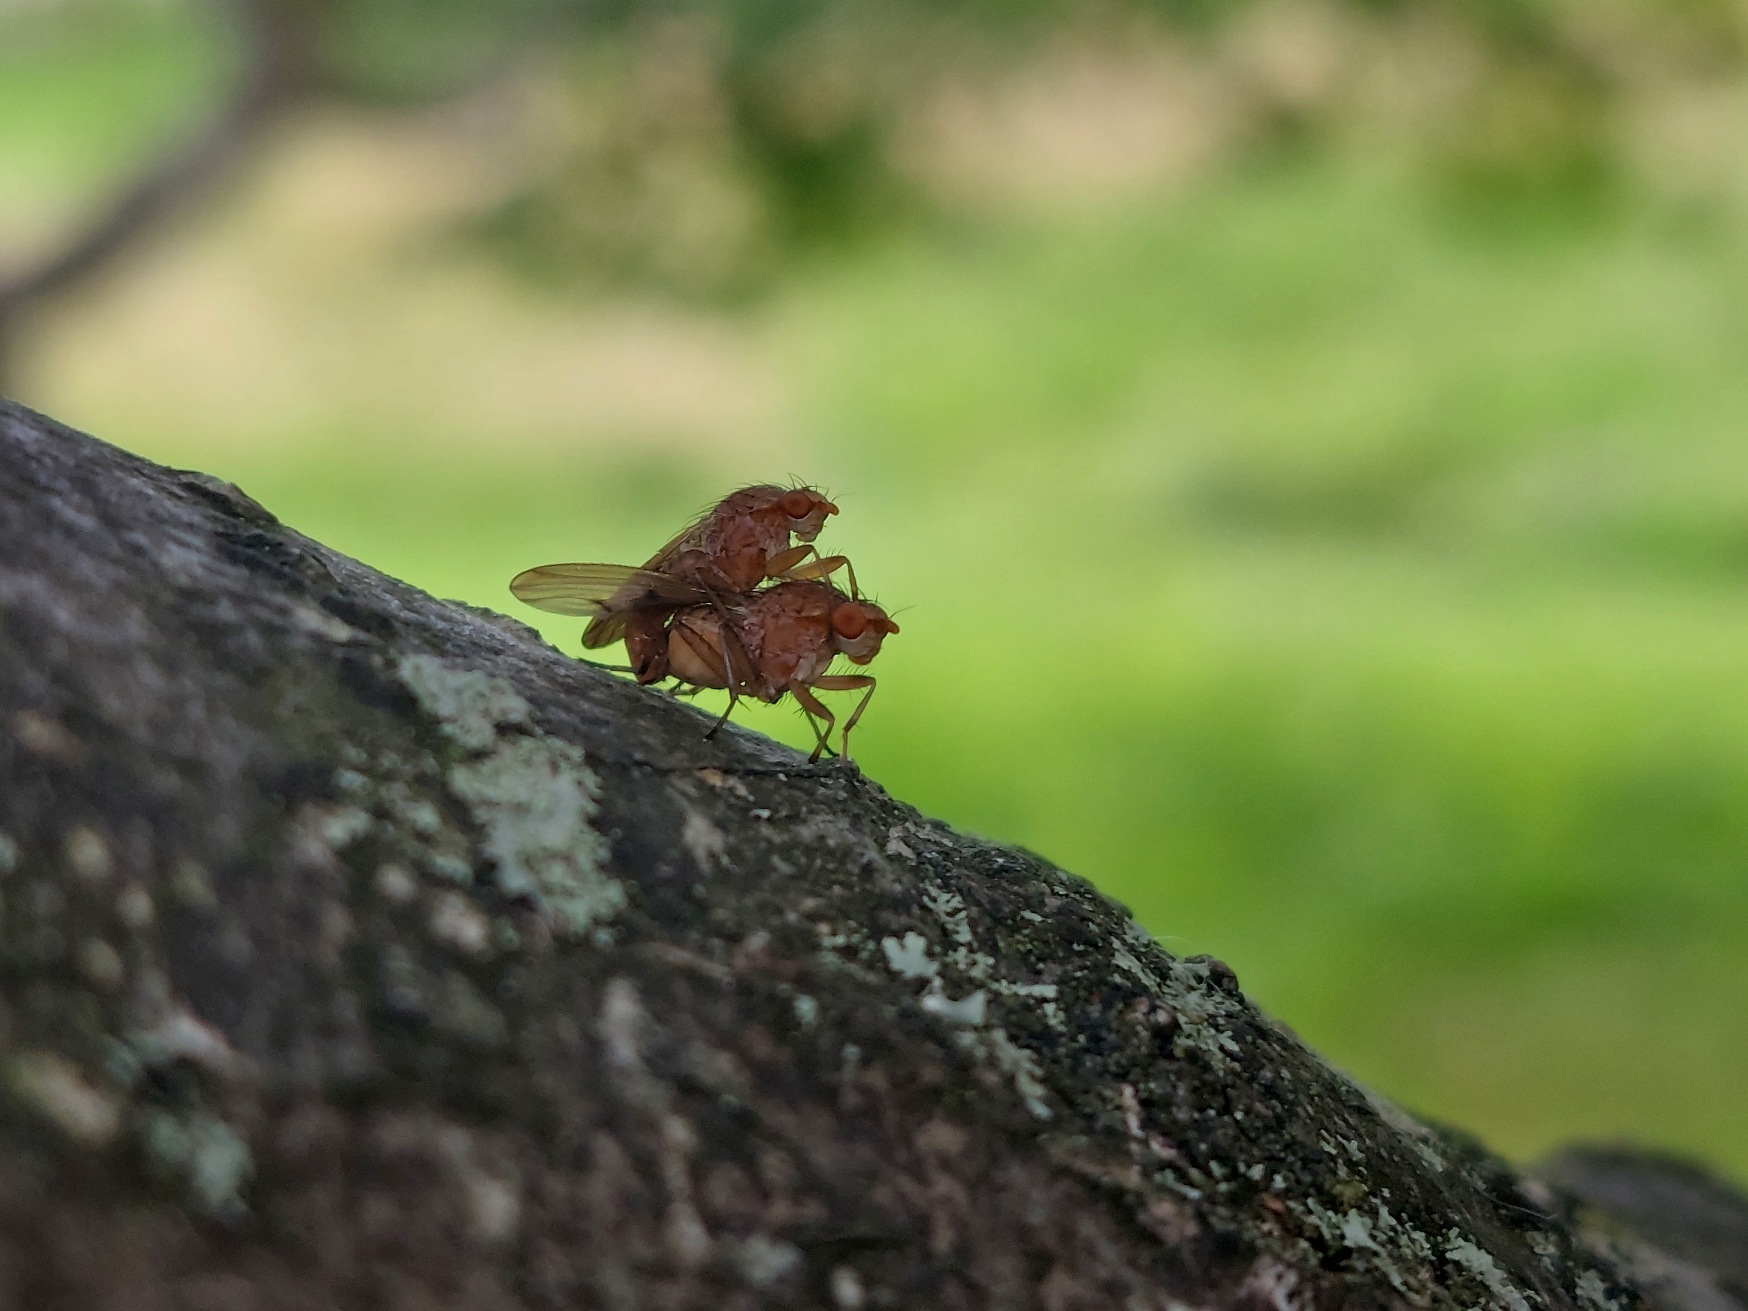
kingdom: Animalia
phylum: Arthropoda
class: Insecta
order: Diptera
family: Heleomyzidae
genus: Suillia
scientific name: Suillia
